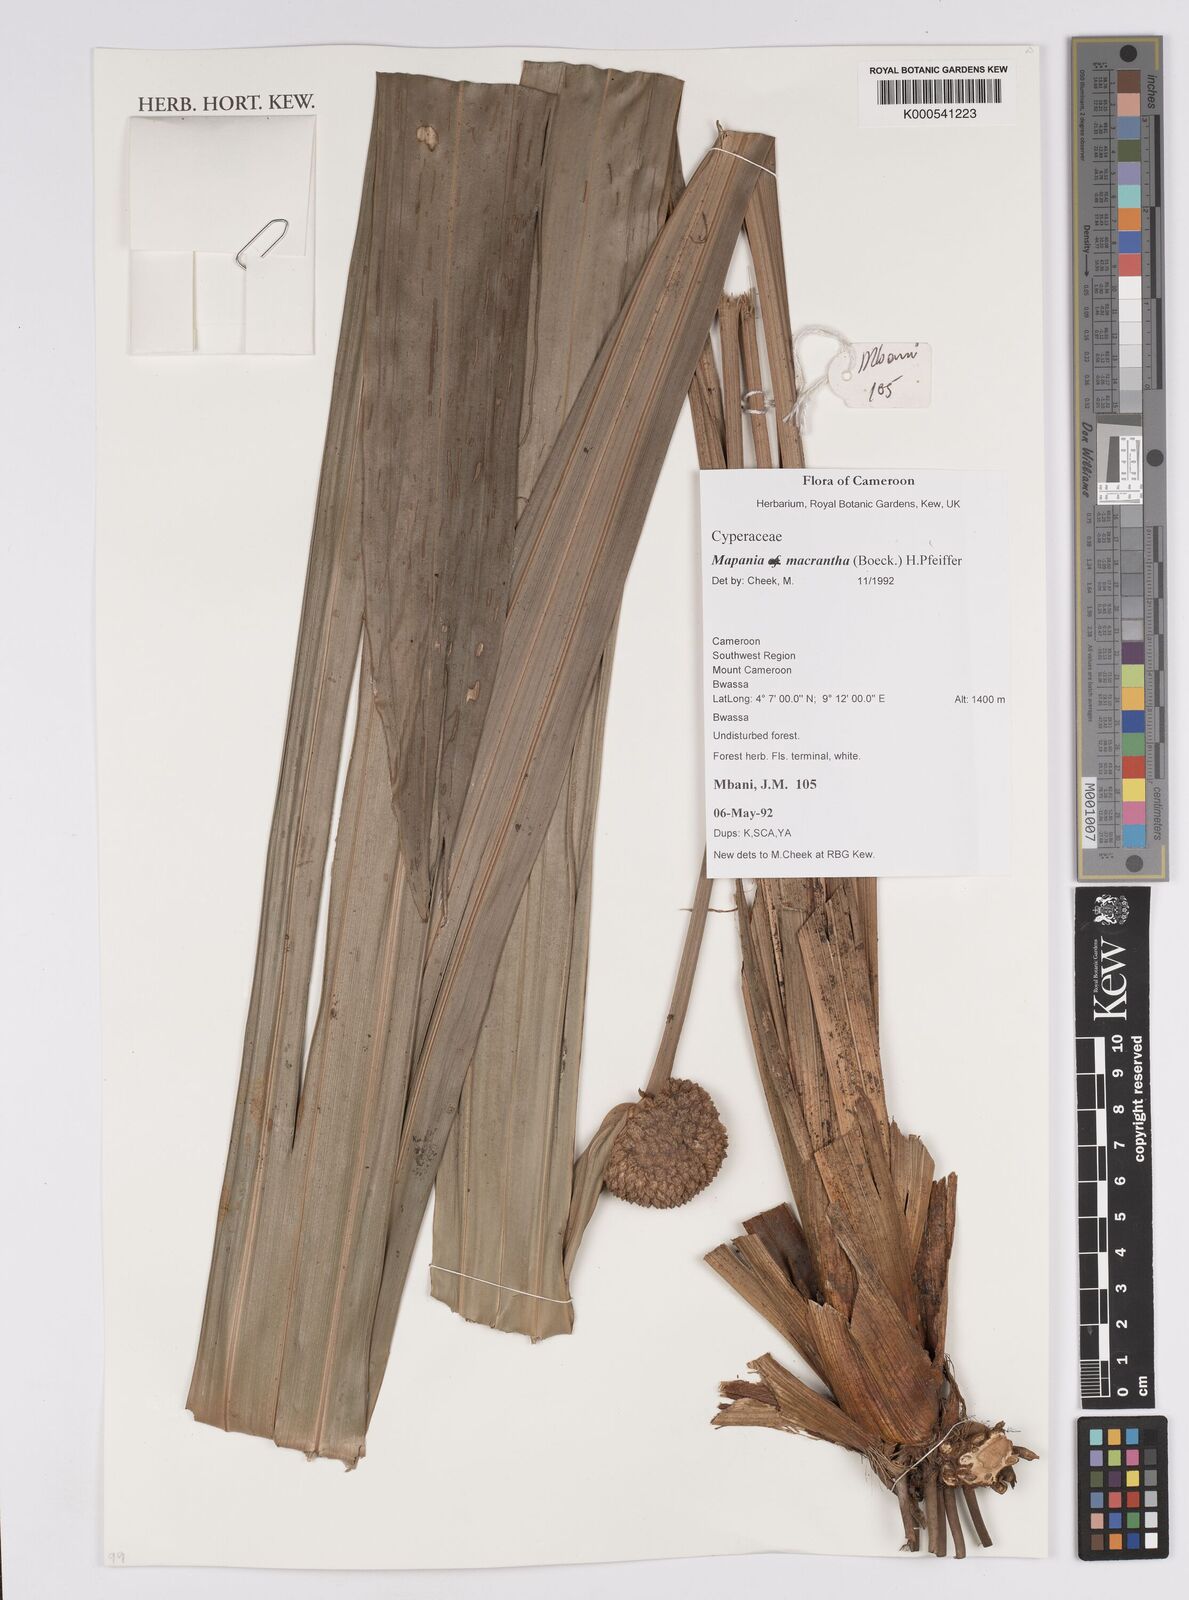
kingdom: Plantae
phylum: Tracheophyta
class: Liliopsida
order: Poales
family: Cyperaceae
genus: Mapania
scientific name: Mapania macrantha
